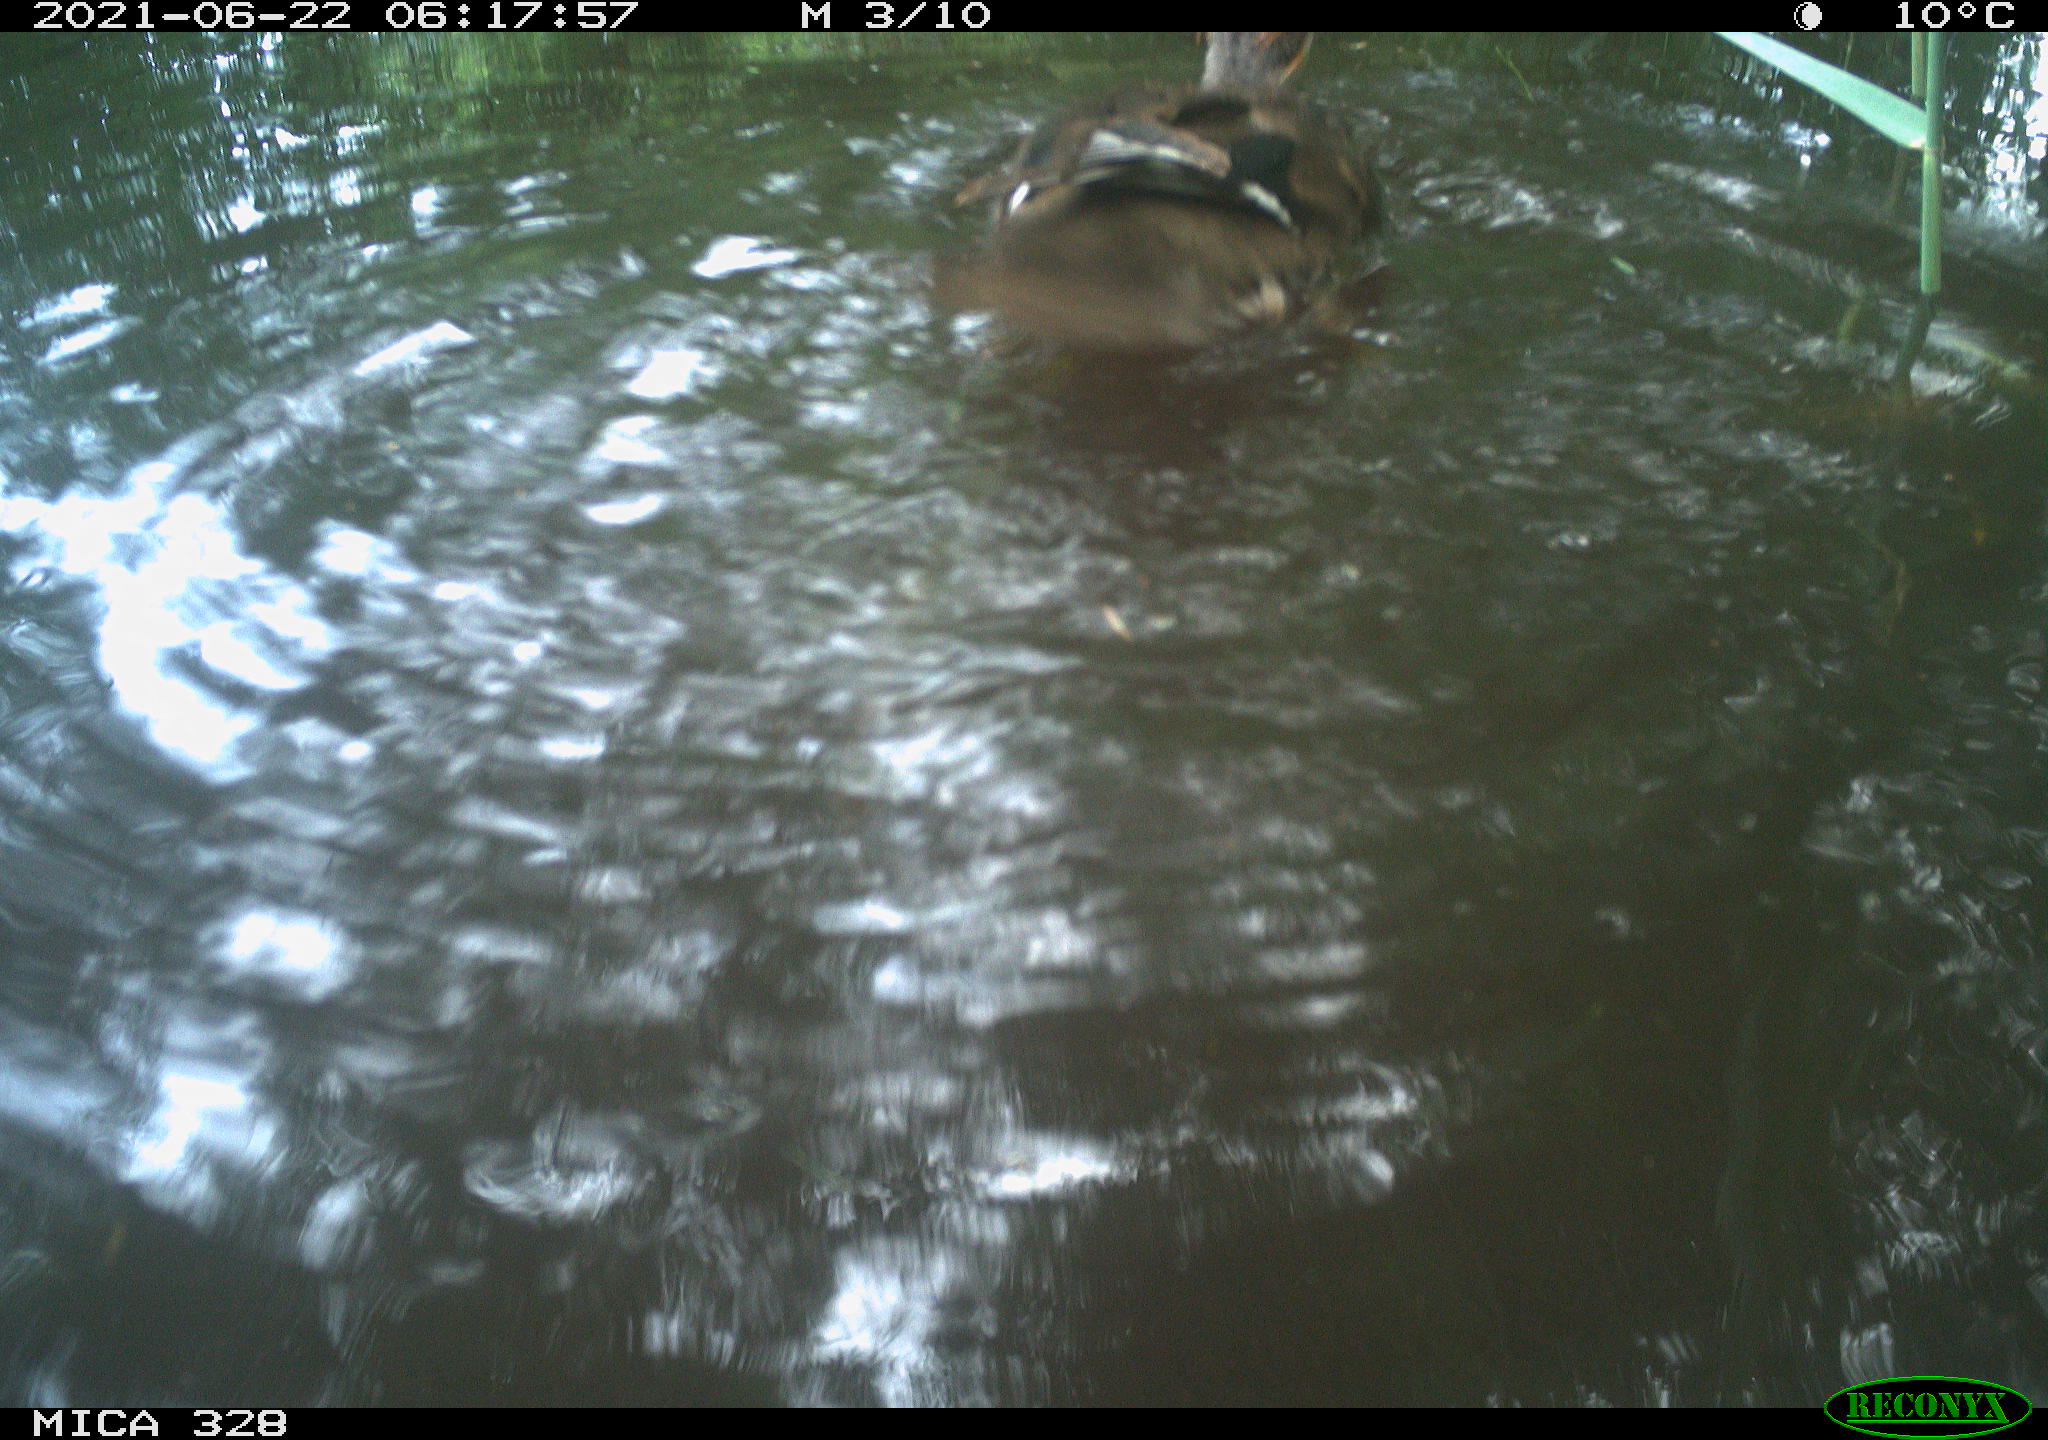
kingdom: Animalia
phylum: Chordata
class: Aves
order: Anseriformes
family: Anatidae
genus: Aix
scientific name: Aix galericulata
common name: Mandarin duck
